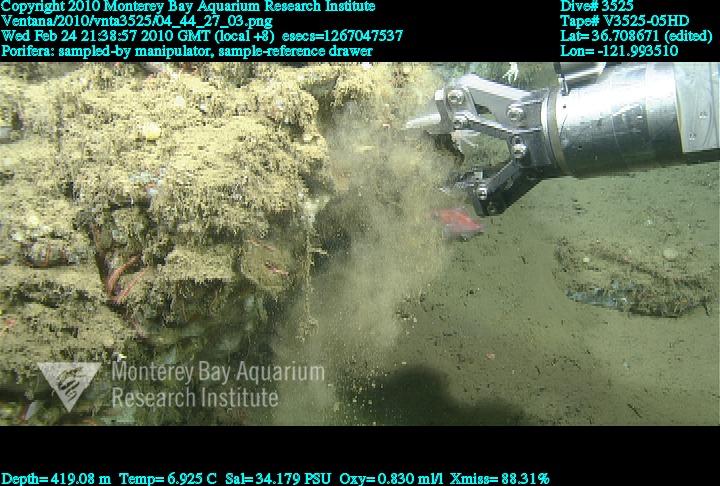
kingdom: Animalia
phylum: Porifera
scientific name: Porifera
